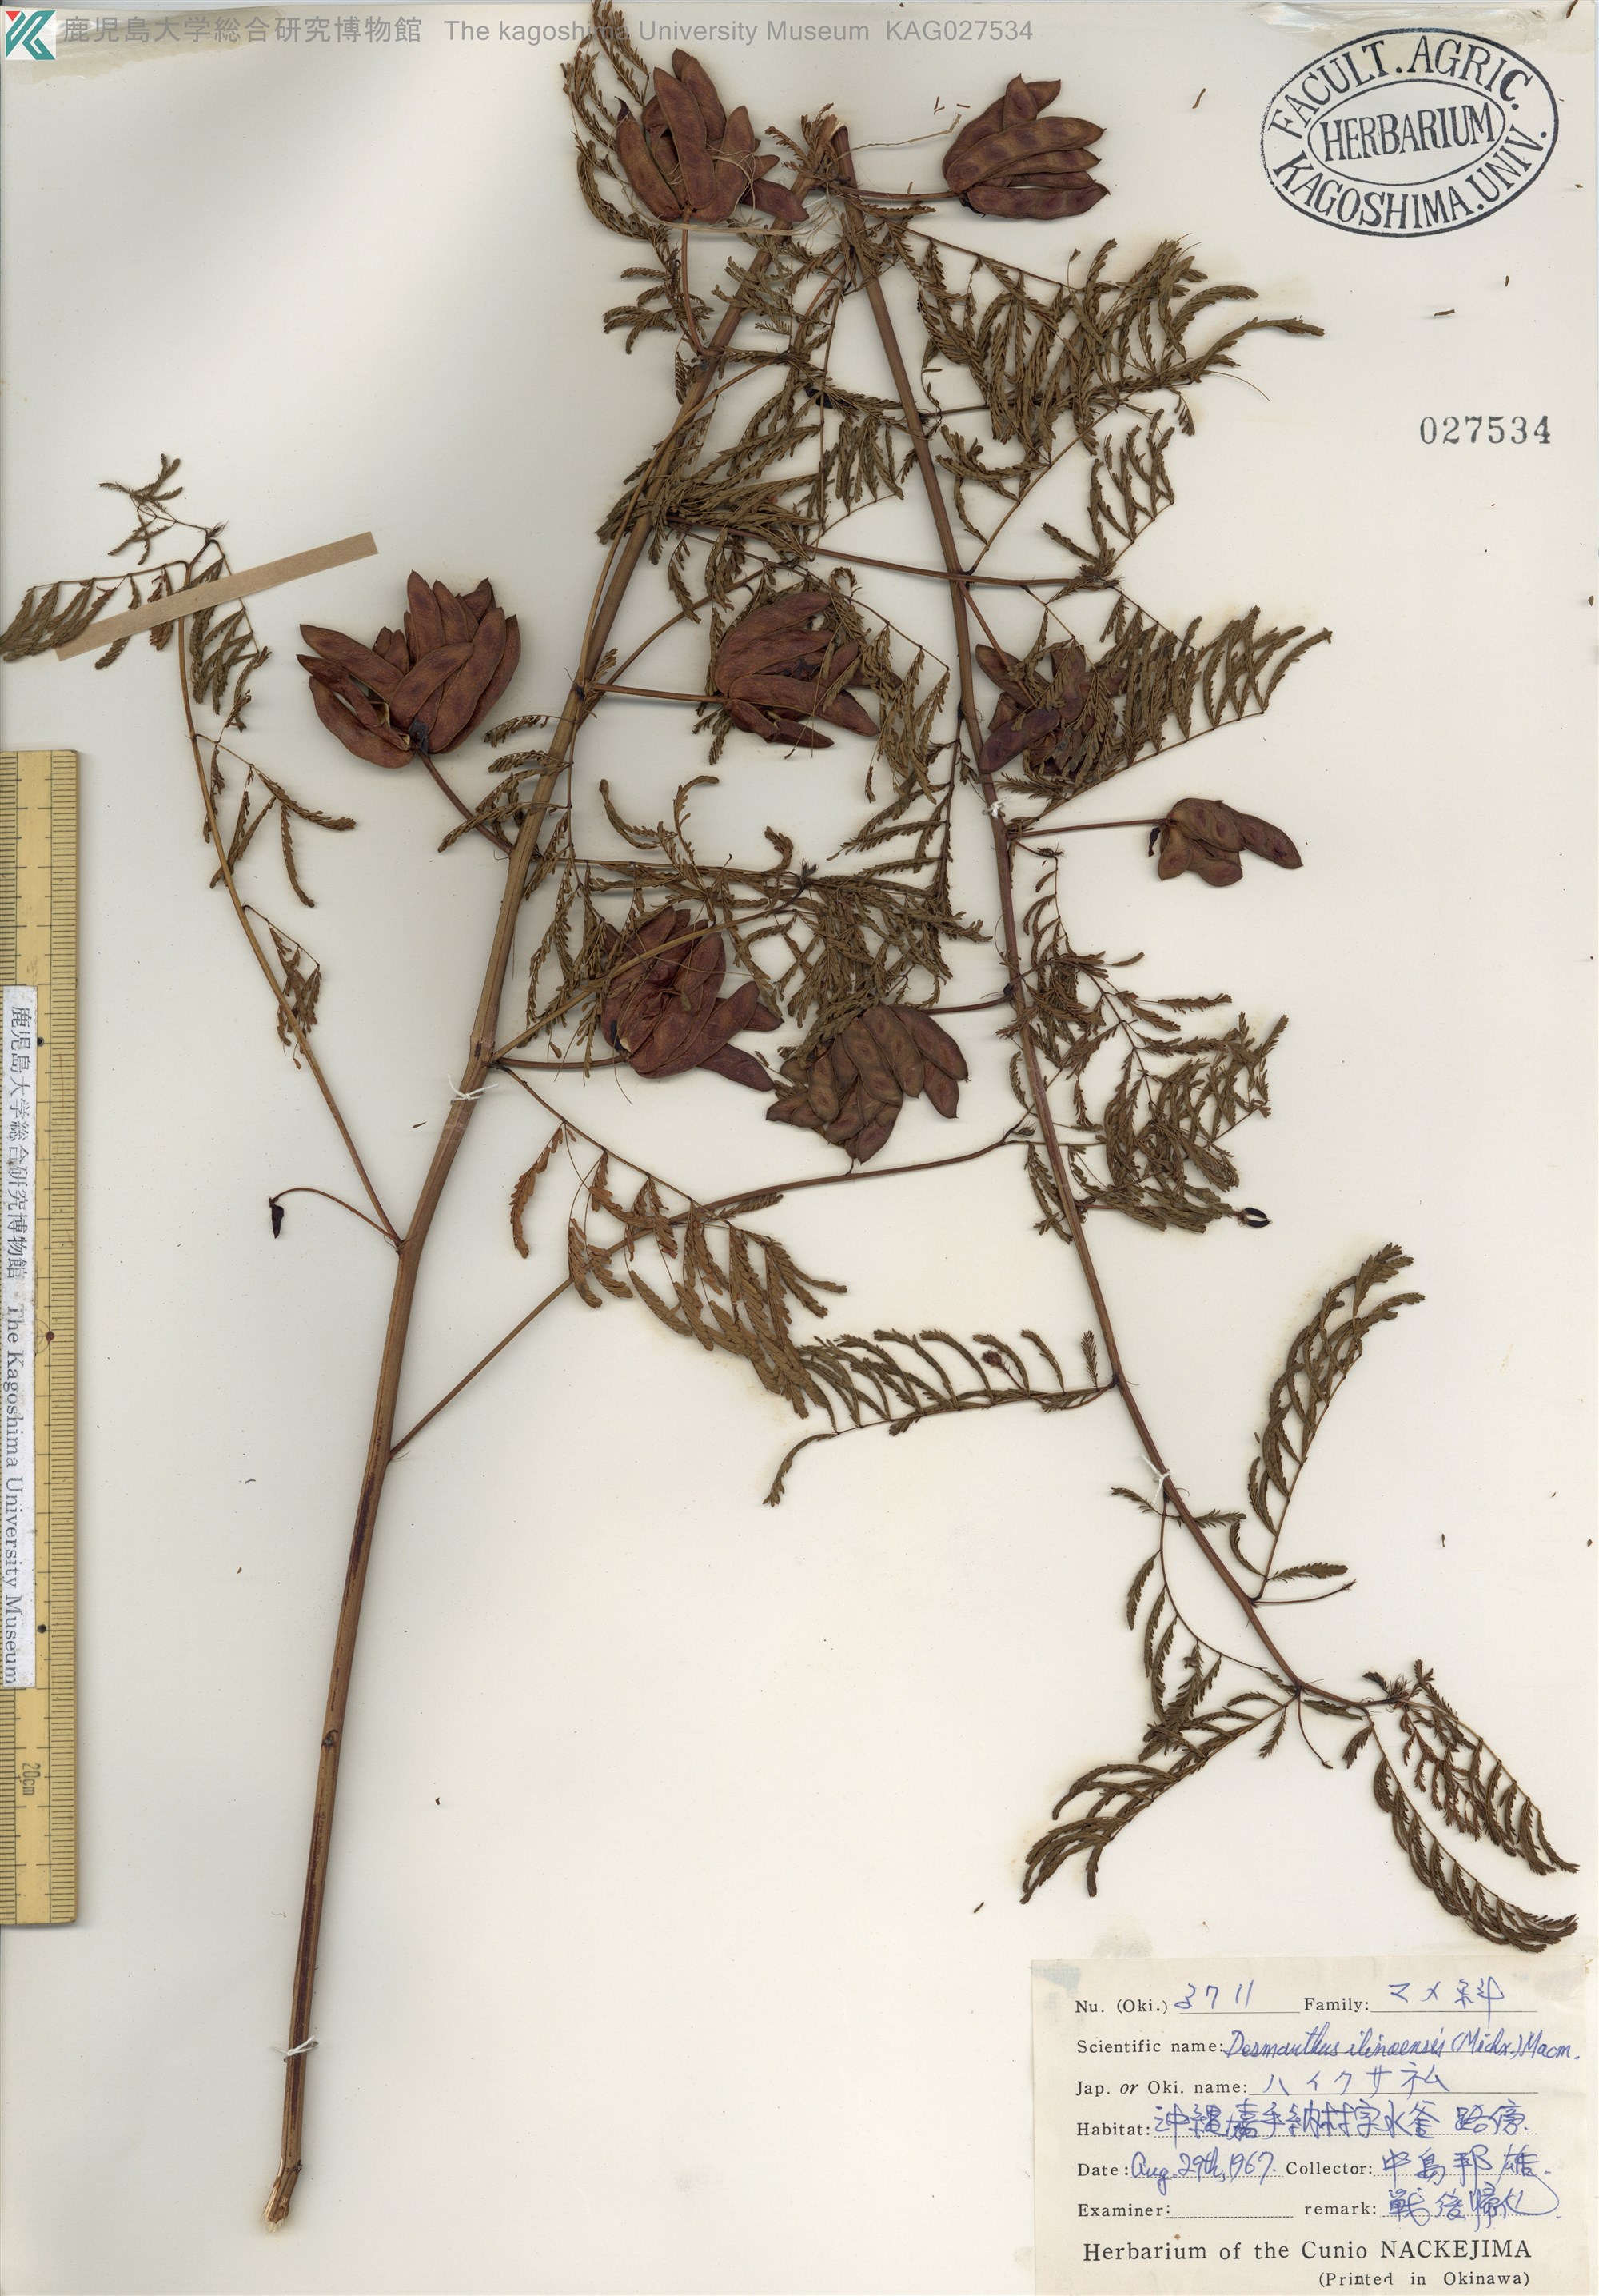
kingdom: Plantae
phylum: Tracheophyta
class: Magnoliopsida
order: Fabales
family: Fabaceae
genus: Desmanthus
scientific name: Desmanthus illinoensis
